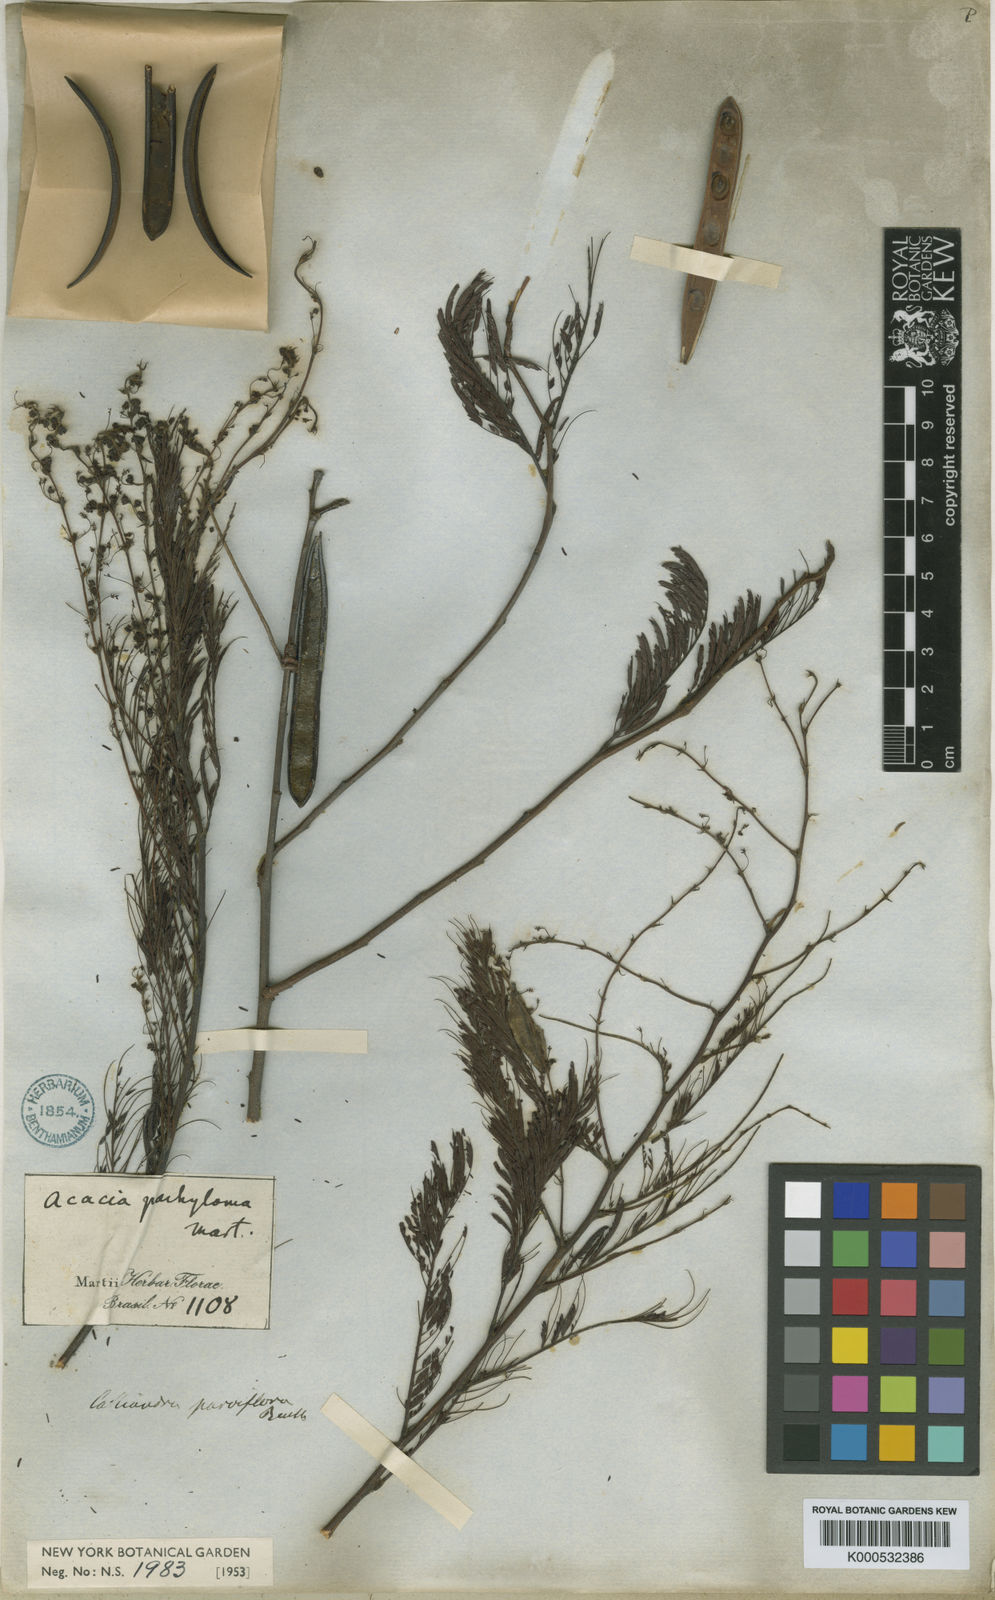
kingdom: Plantae
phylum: Tracheophyta
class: Magnoliopsida
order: Fabales
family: Fabaceae
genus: Calliandra
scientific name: Calliandra parviflora
